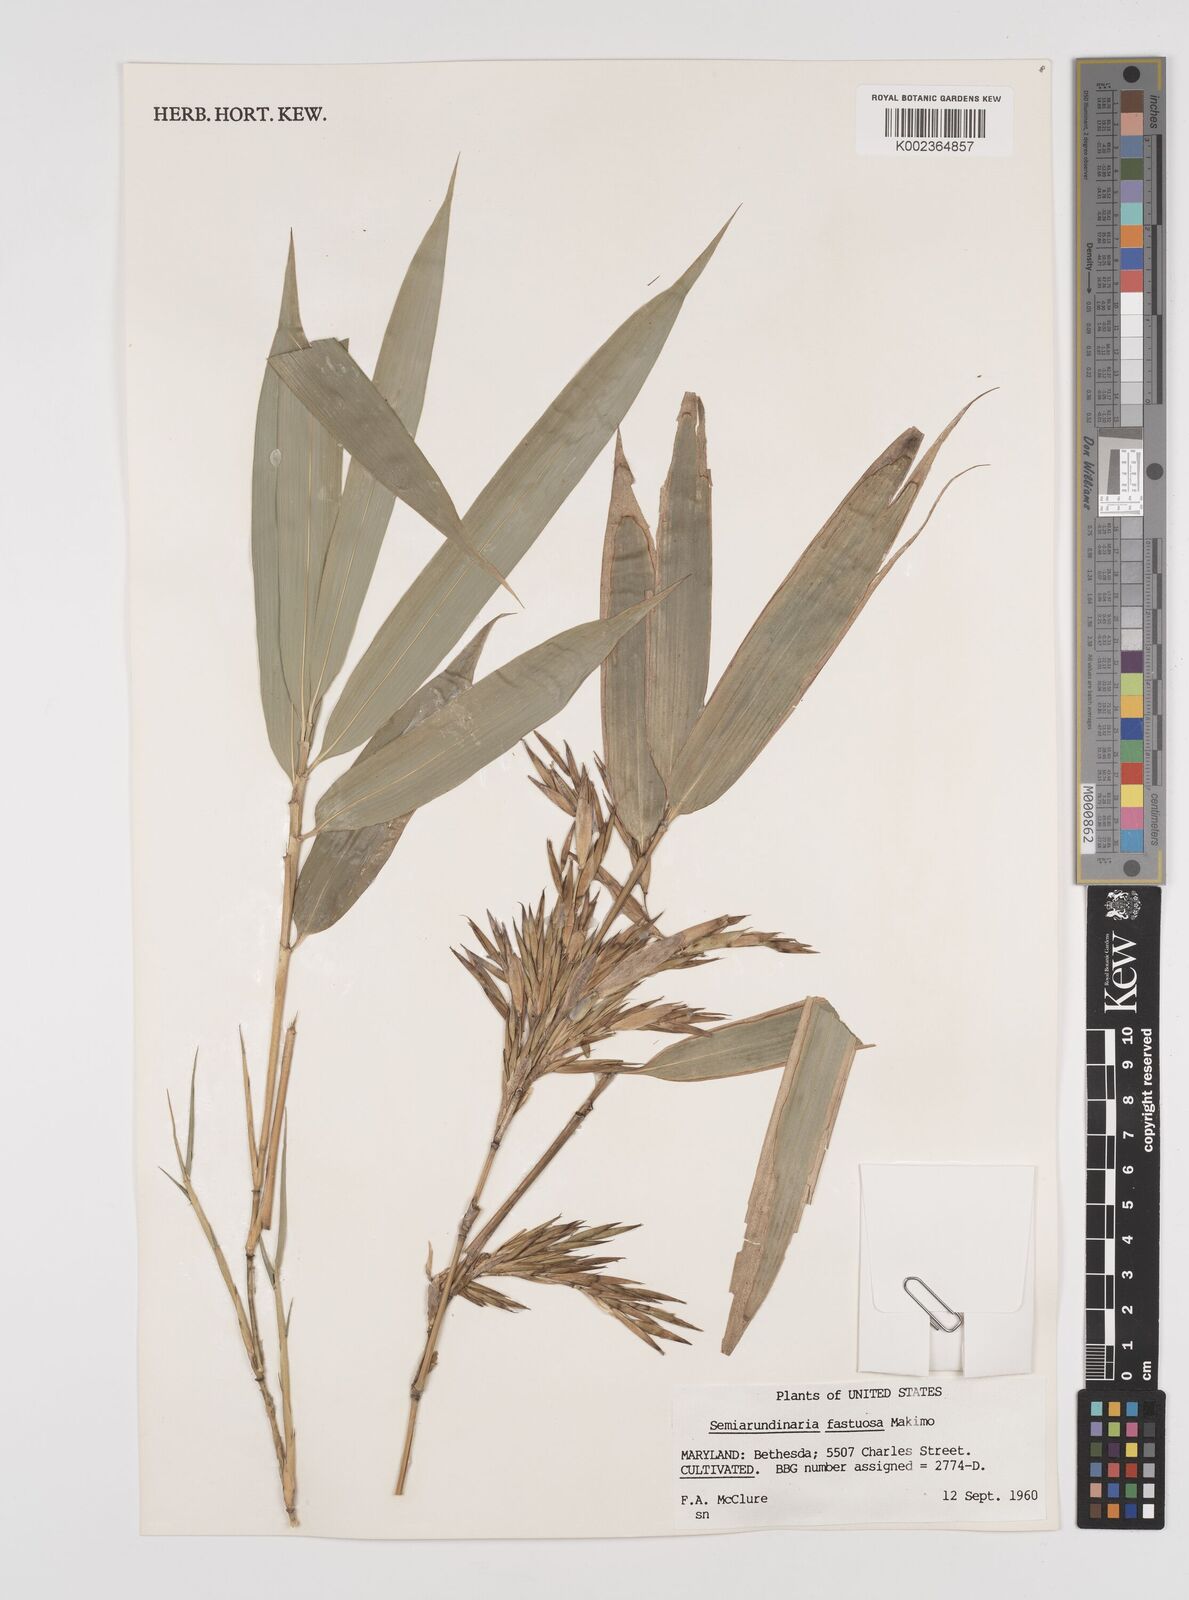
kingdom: Plantae
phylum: Tracheophyta
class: Liliopsida
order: Poales
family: Poaceae
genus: Semiarundinaria
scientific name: Semiarundinaria fastuosa
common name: Narihira bamboo
